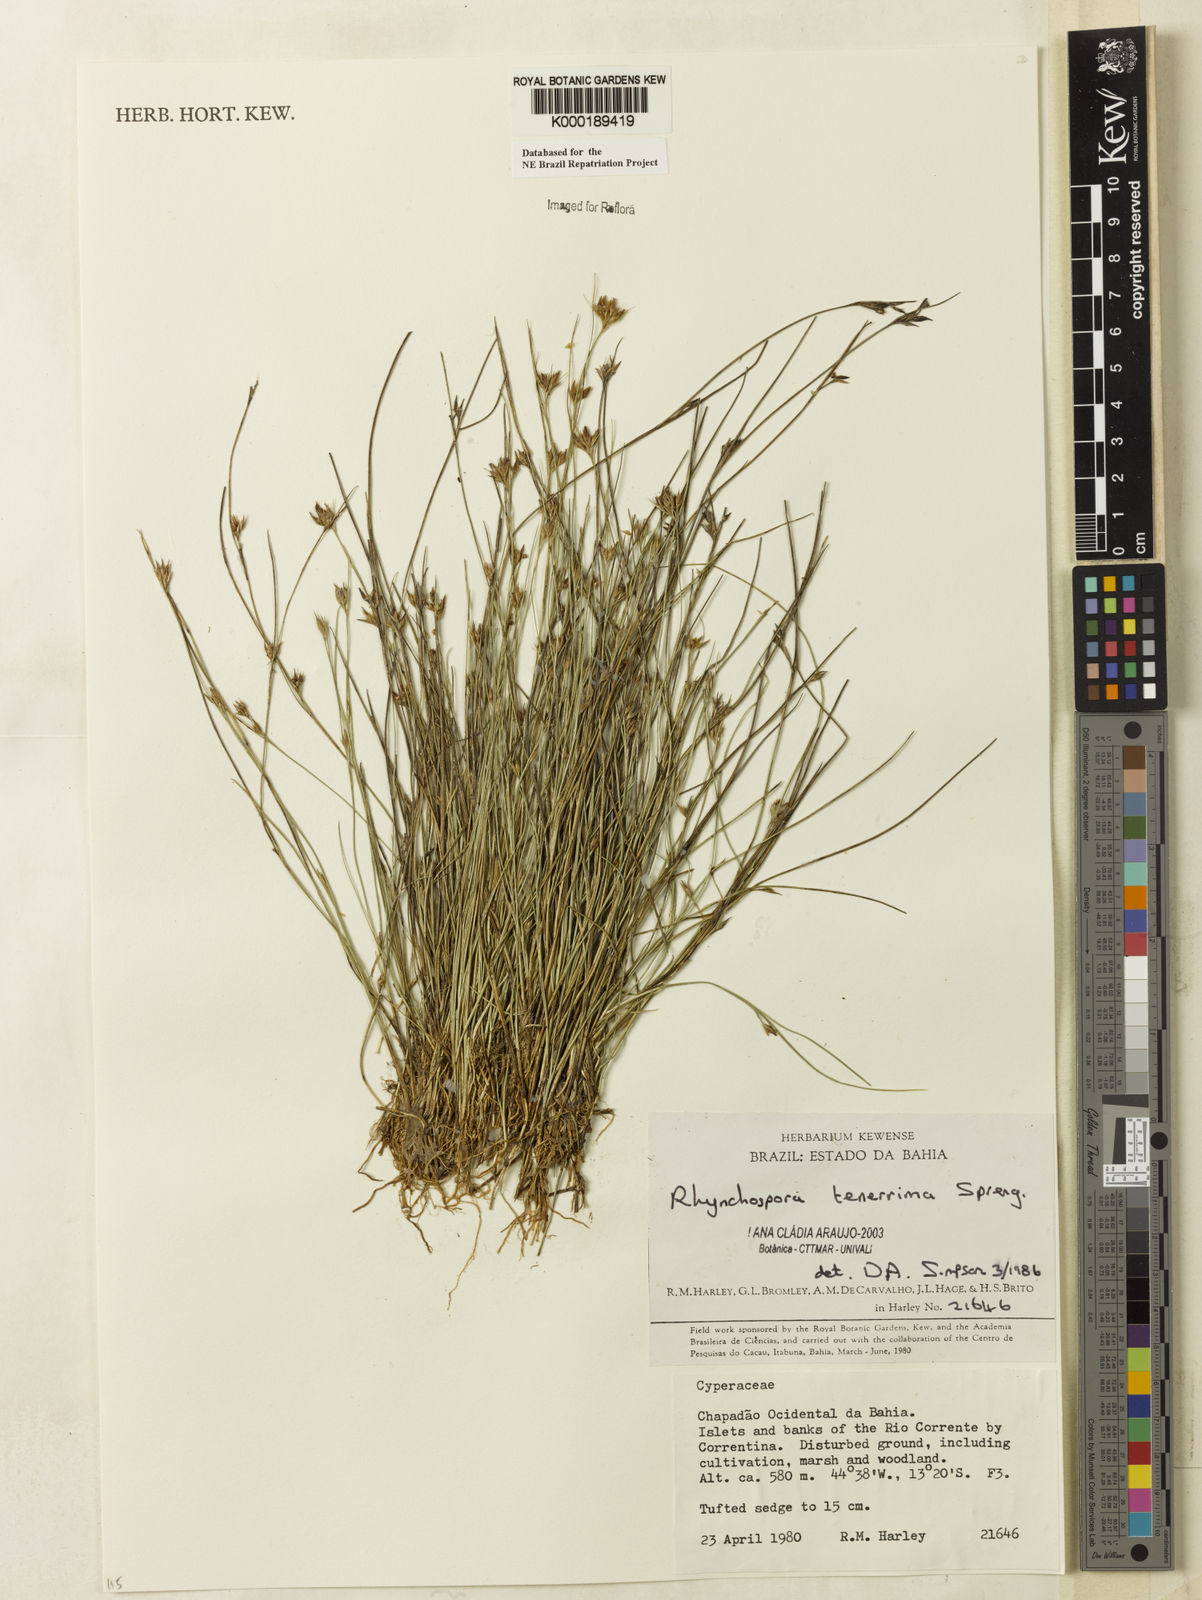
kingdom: Plantae
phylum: Tracheophyta
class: Liliopsida
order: Poales
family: Cyperaceae
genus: Rhynchospora
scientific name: Rhynchospora tenerrima
